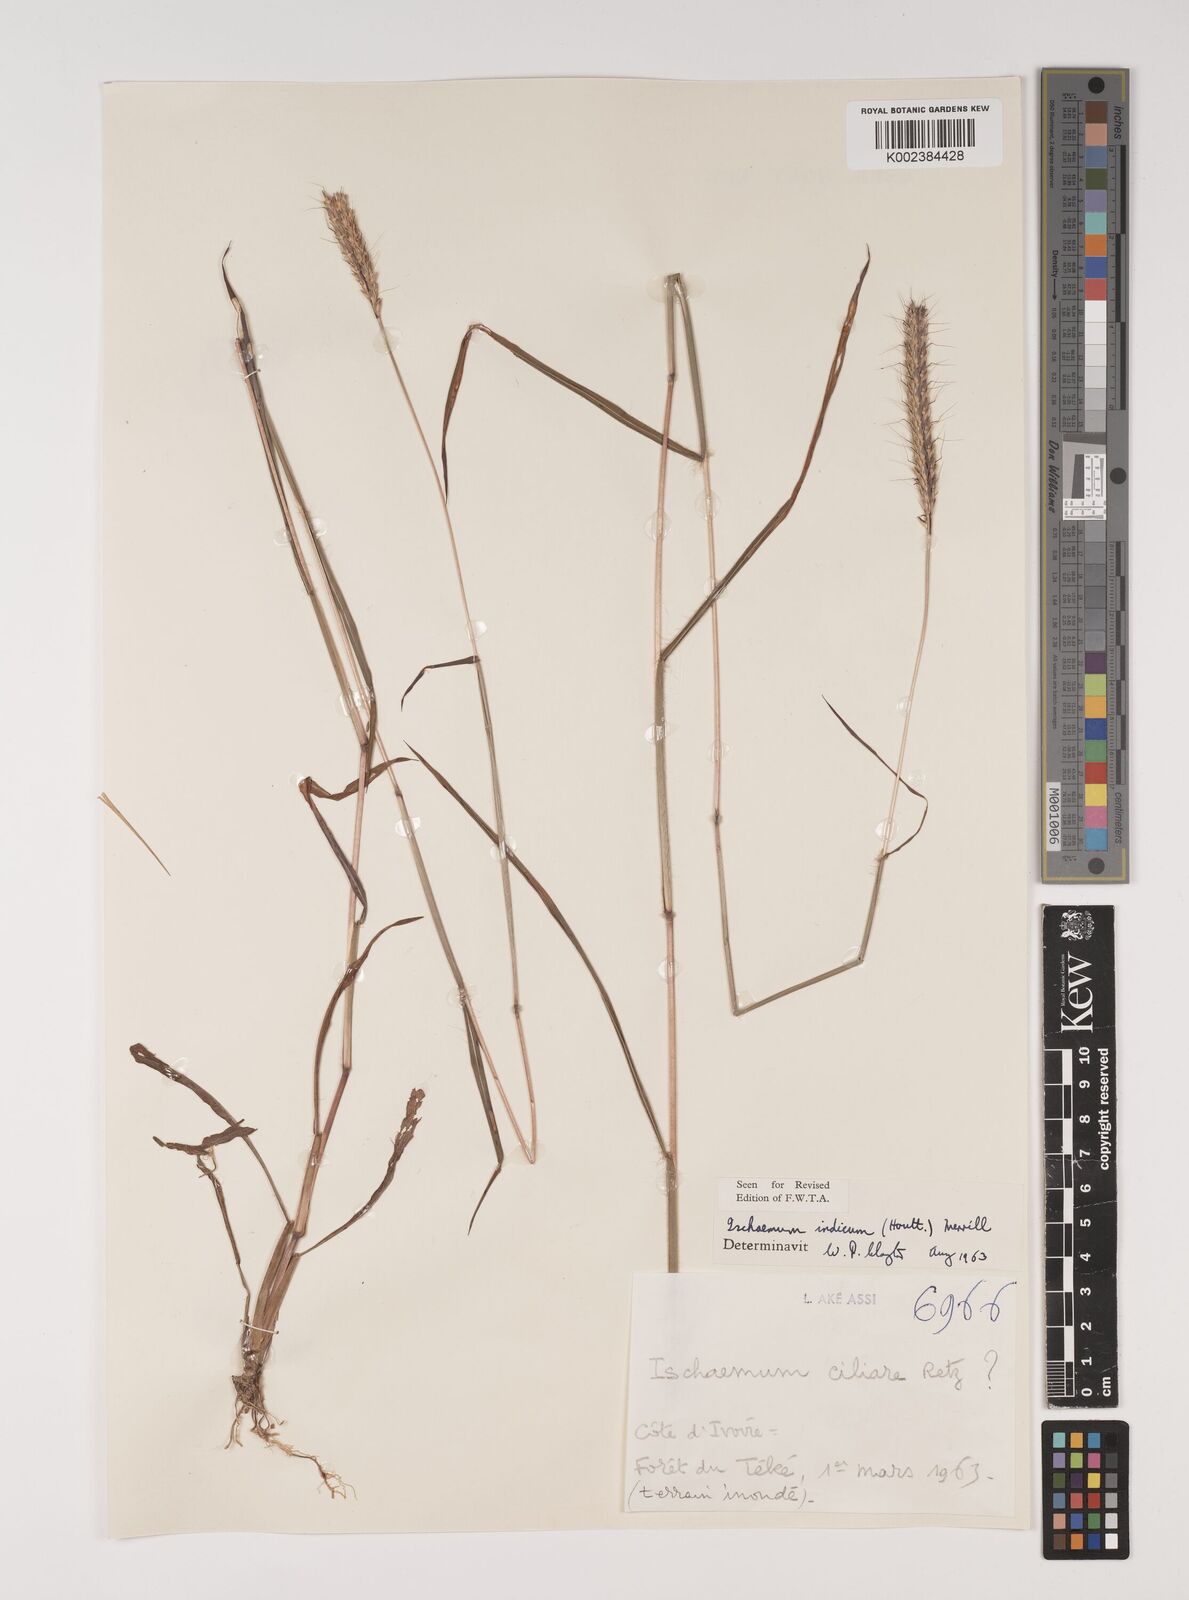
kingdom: Plantae
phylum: Tracheophyta
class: Liliopsida
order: Poales
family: Poaceae
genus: Polytrias
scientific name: Polytrias indica
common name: Indian murainagrass
